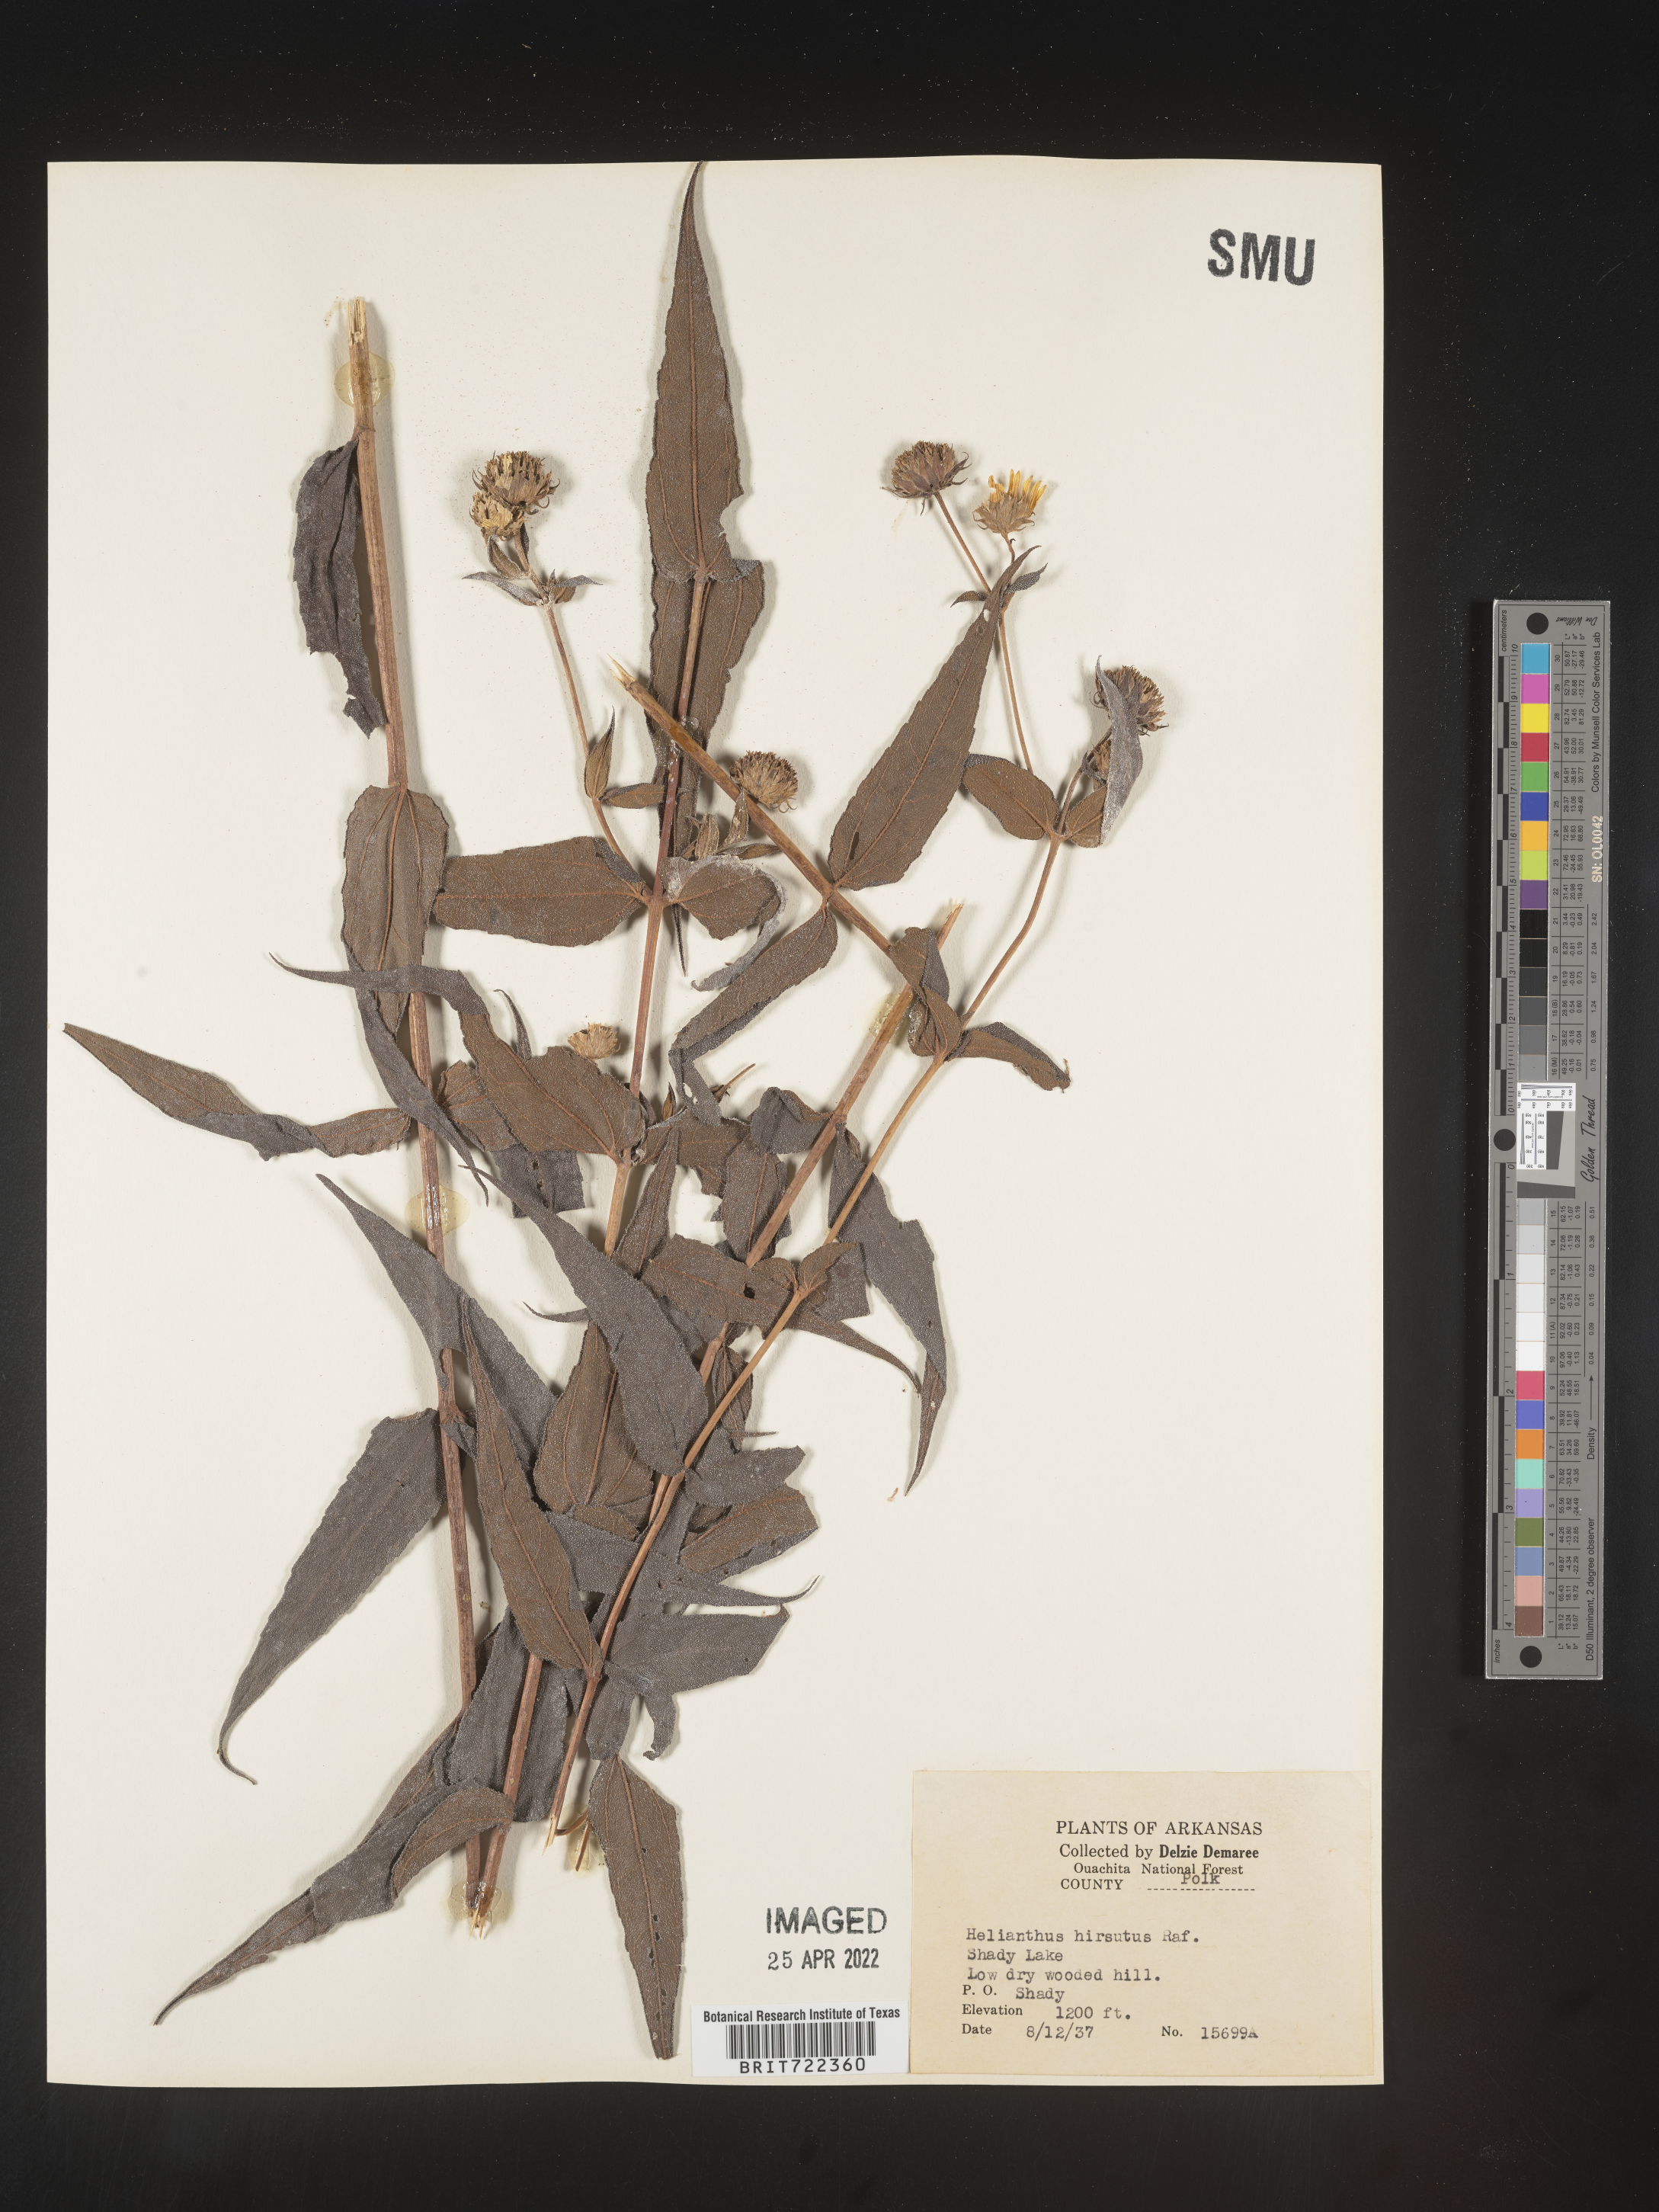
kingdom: Plantae
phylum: Tracheophyta
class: Magnoliopsida
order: Asterales
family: Asteraceae
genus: Helianthus
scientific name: Helianthus hirsutus
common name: Hairy sunflower
